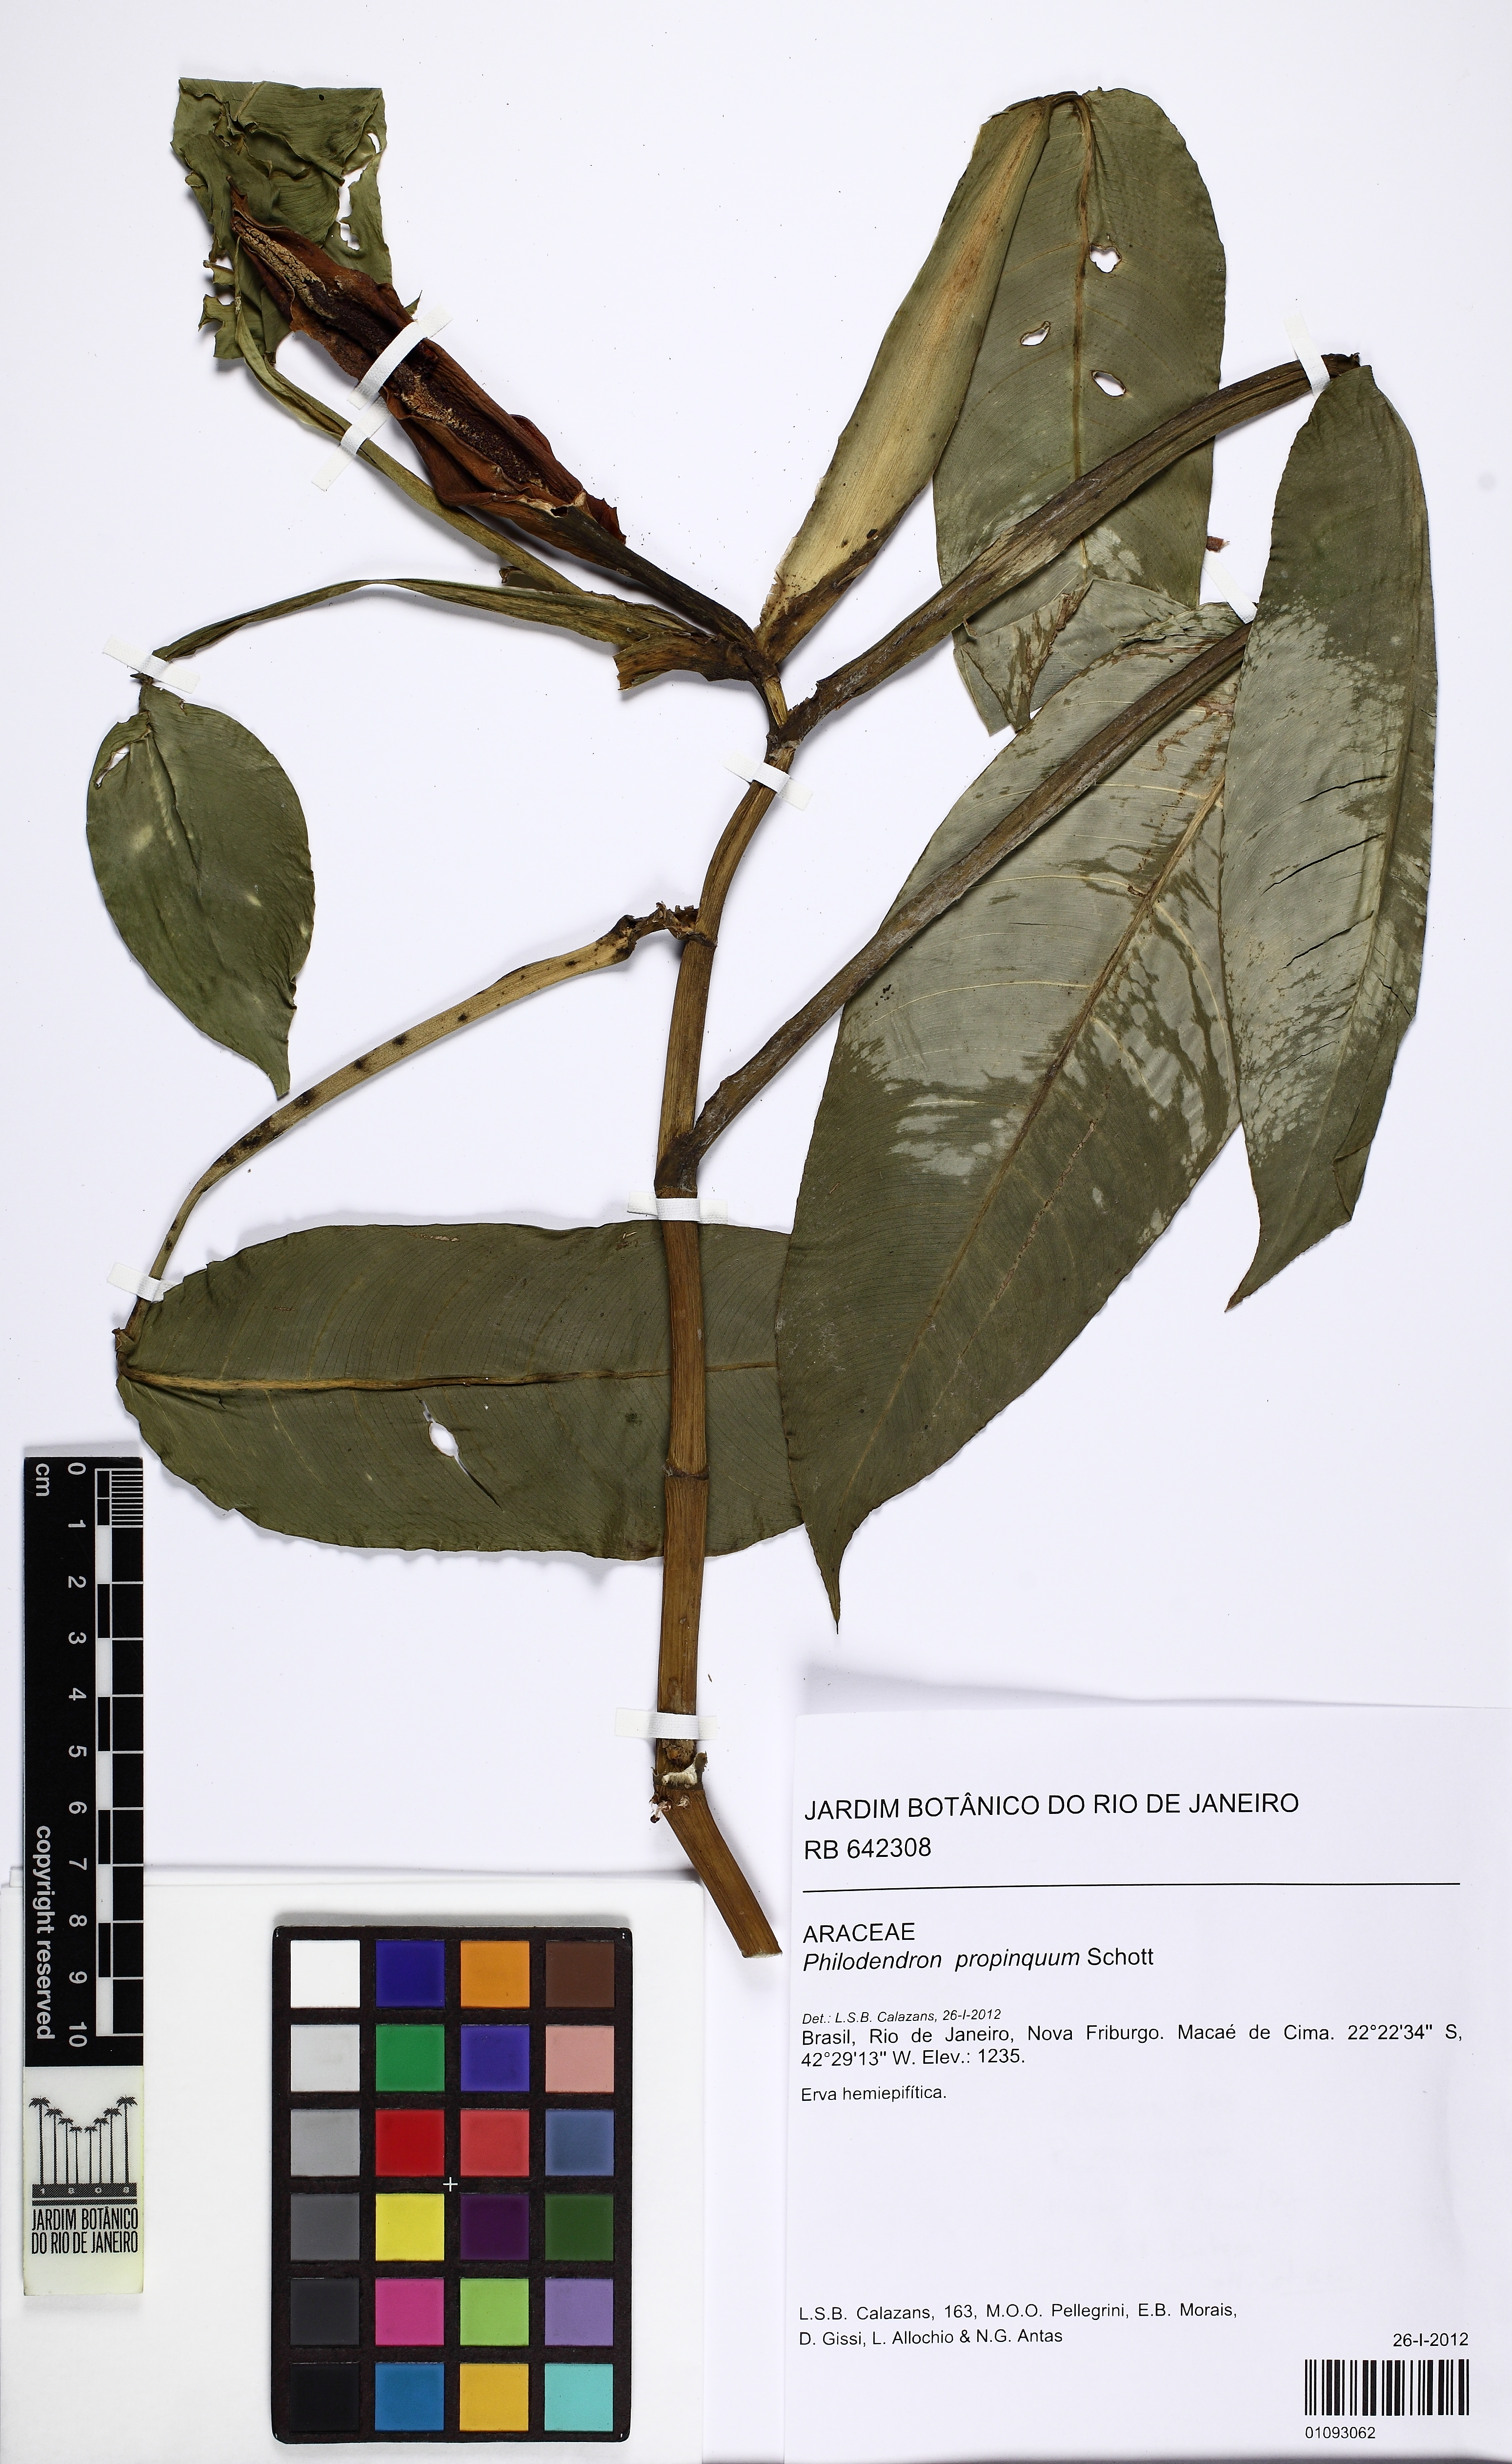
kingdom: Plantae
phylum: Tracheophyta
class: Liliopsida
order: Alismatales
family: Araceae
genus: Philodendron
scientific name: Philodendron propinquum
